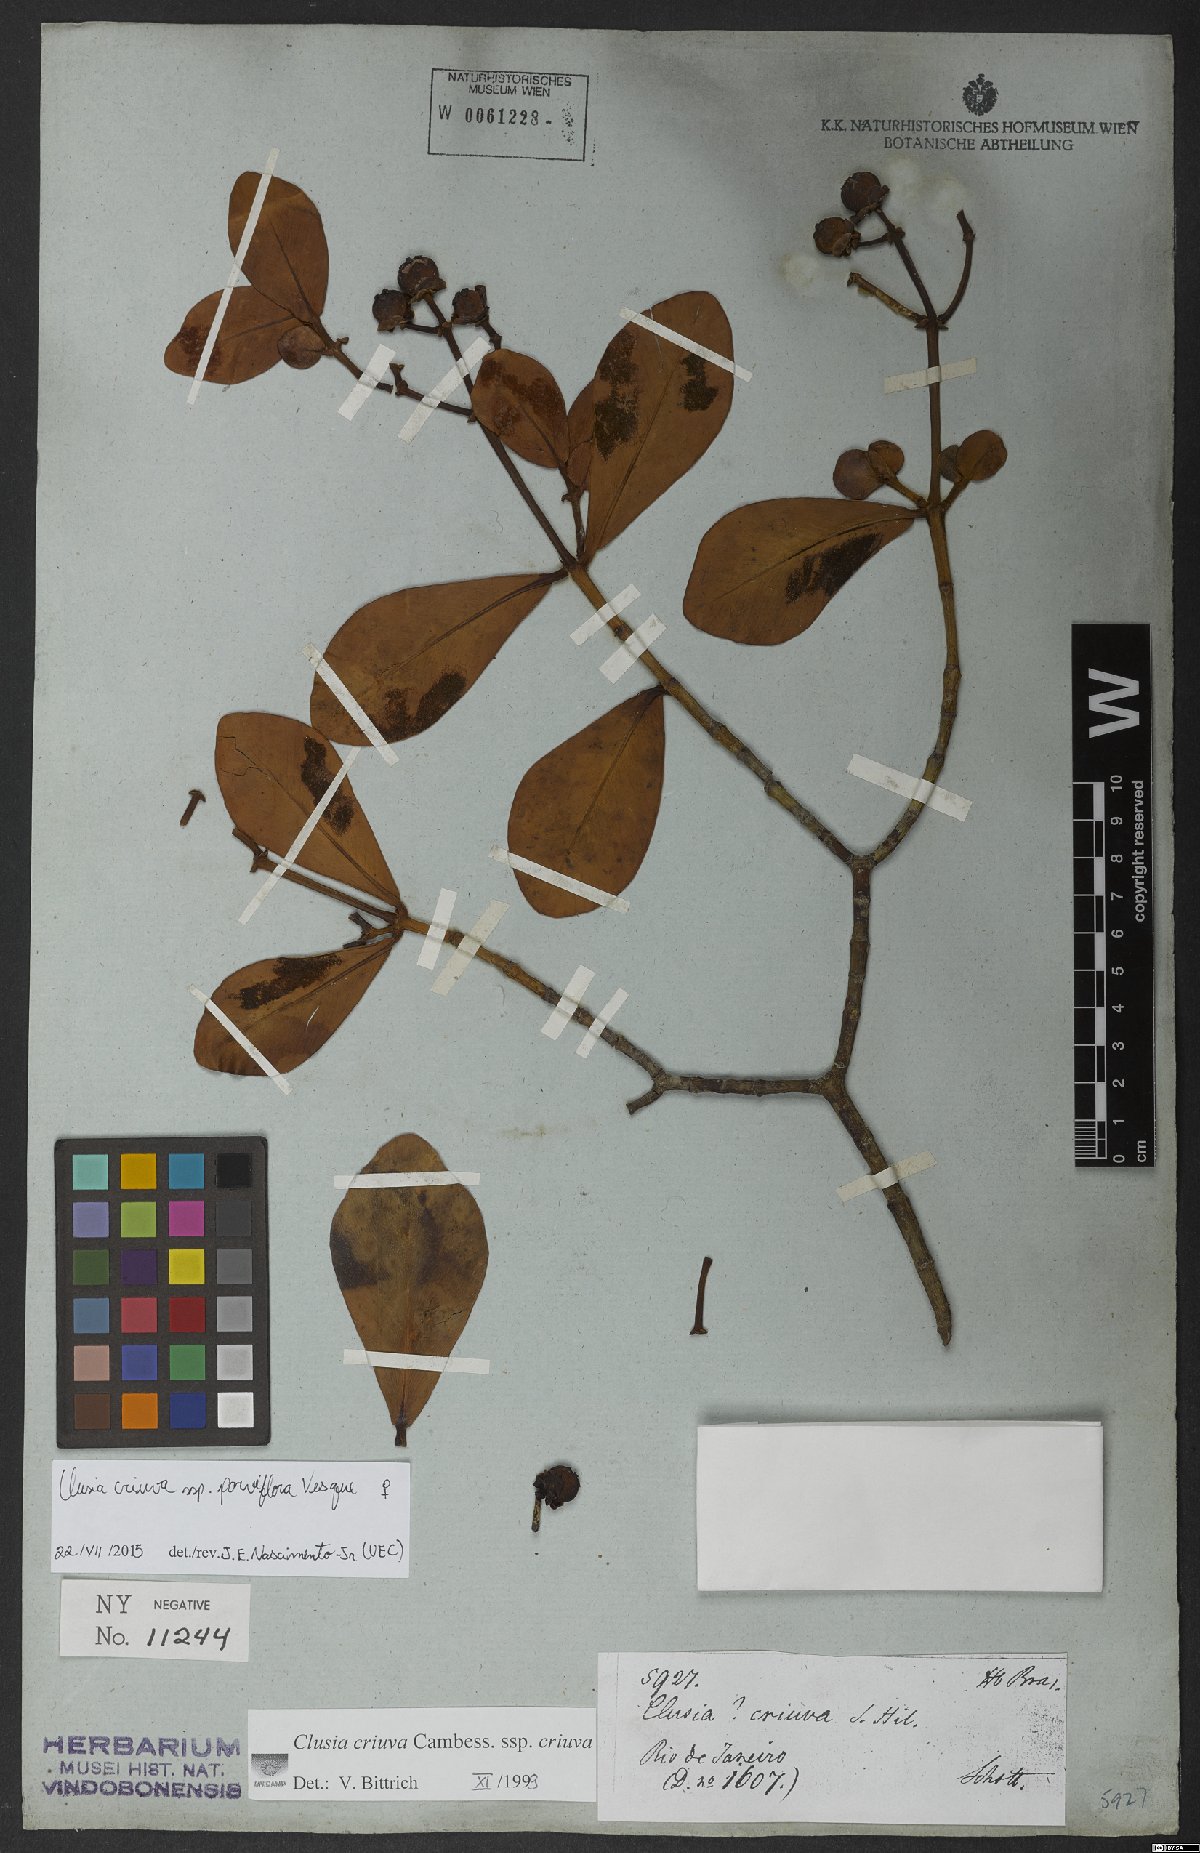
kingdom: Plantae
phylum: Tracheophyta
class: Magnoliopsida
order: Malpighiales
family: Clusiaceae
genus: Clusia
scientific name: Clusia criuva
